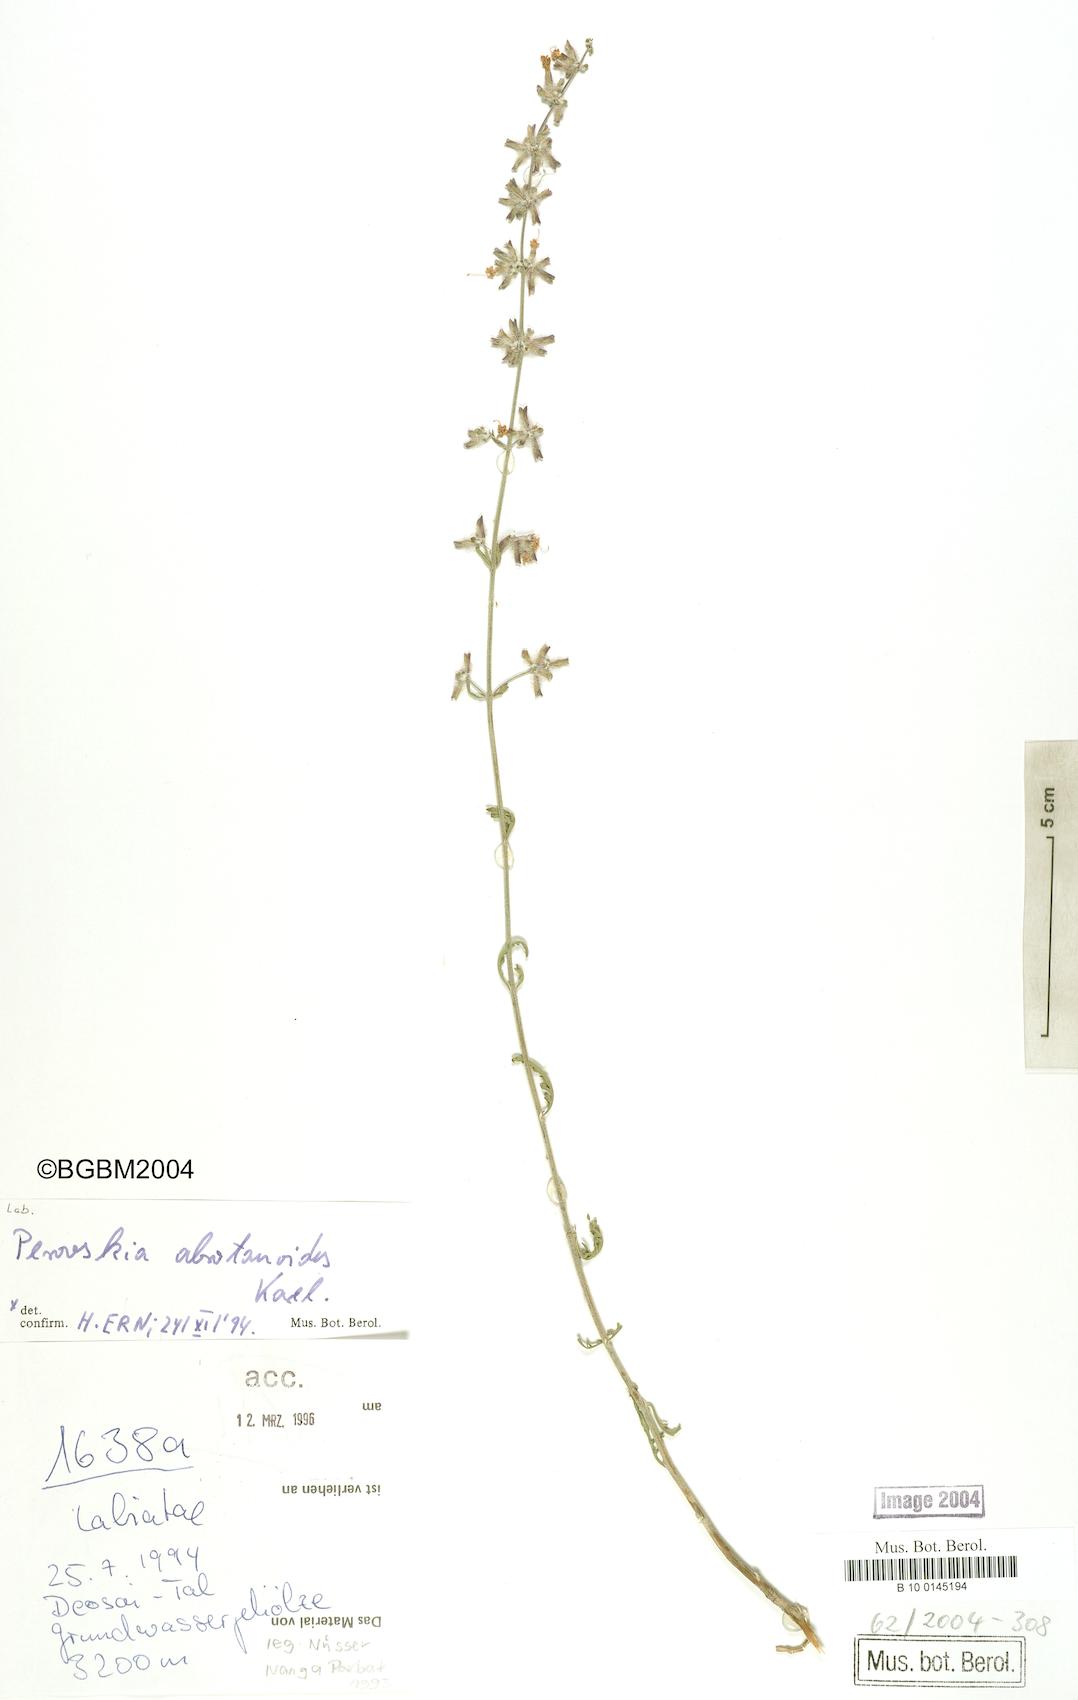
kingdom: Plantae
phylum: Tracheophyta
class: Magnoliopsida
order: Lamiales
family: Lamiaceae
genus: Salvia
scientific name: Salvia abrotanoides
